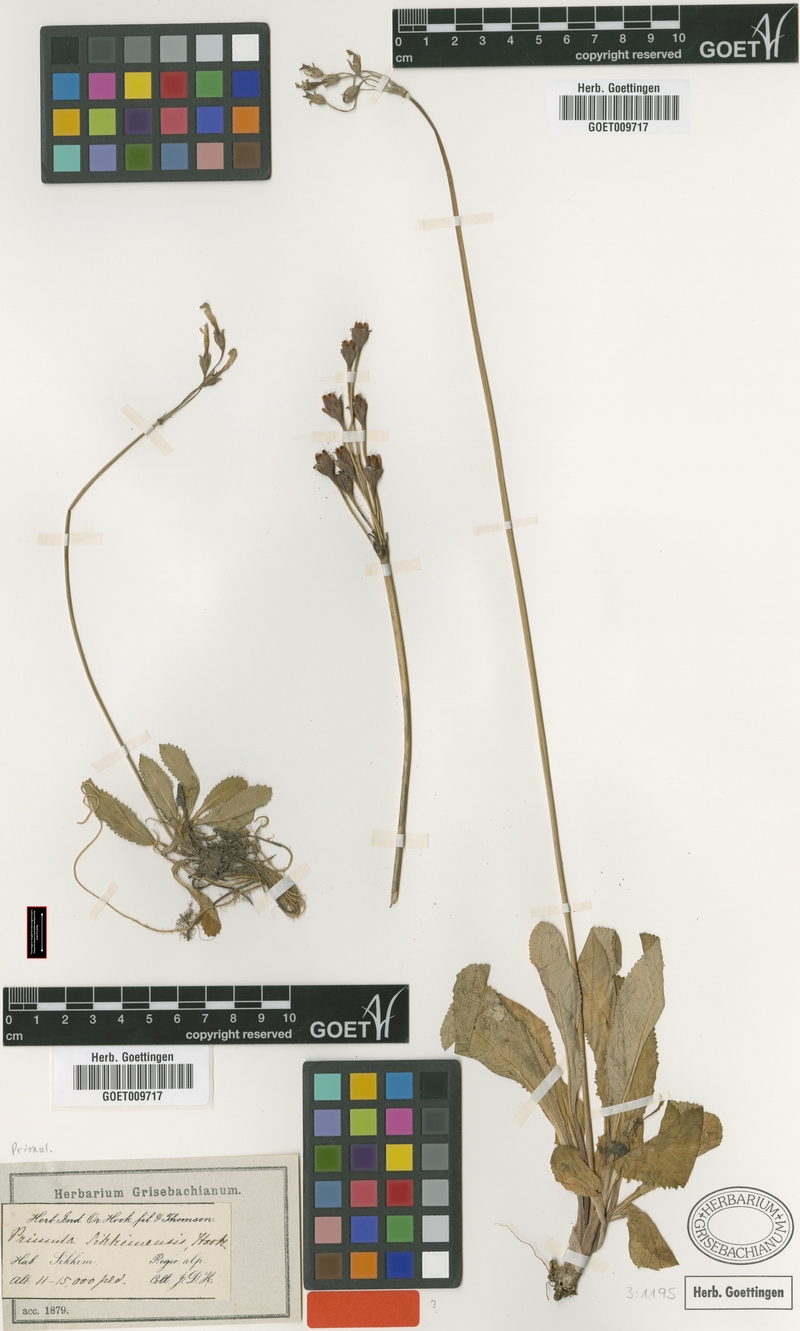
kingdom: Plantae
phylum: Tracheophyta
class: Magnoliopsida
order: Ericales
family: Primulaceae
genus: Primula
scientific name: Primula sikkimensis
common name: Sikkim cowslip
